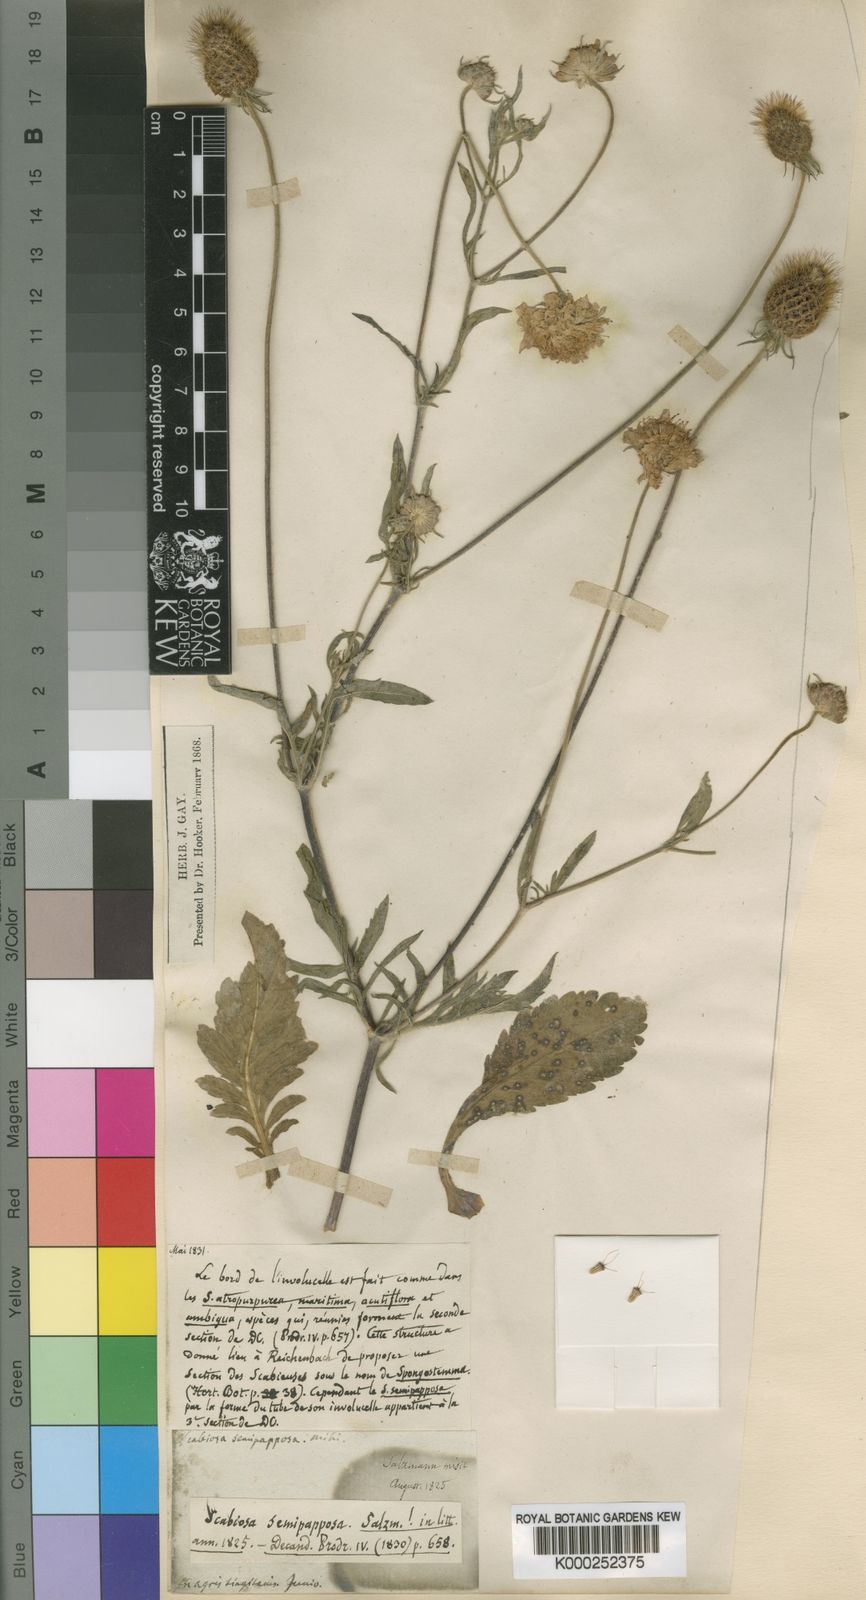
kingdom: Plantae
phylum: Tracheophyta
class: Magnoliopsida
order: Dipsacales
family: Caprifoliaceae
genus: Sixalix
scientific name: Sixalix semipapposa
